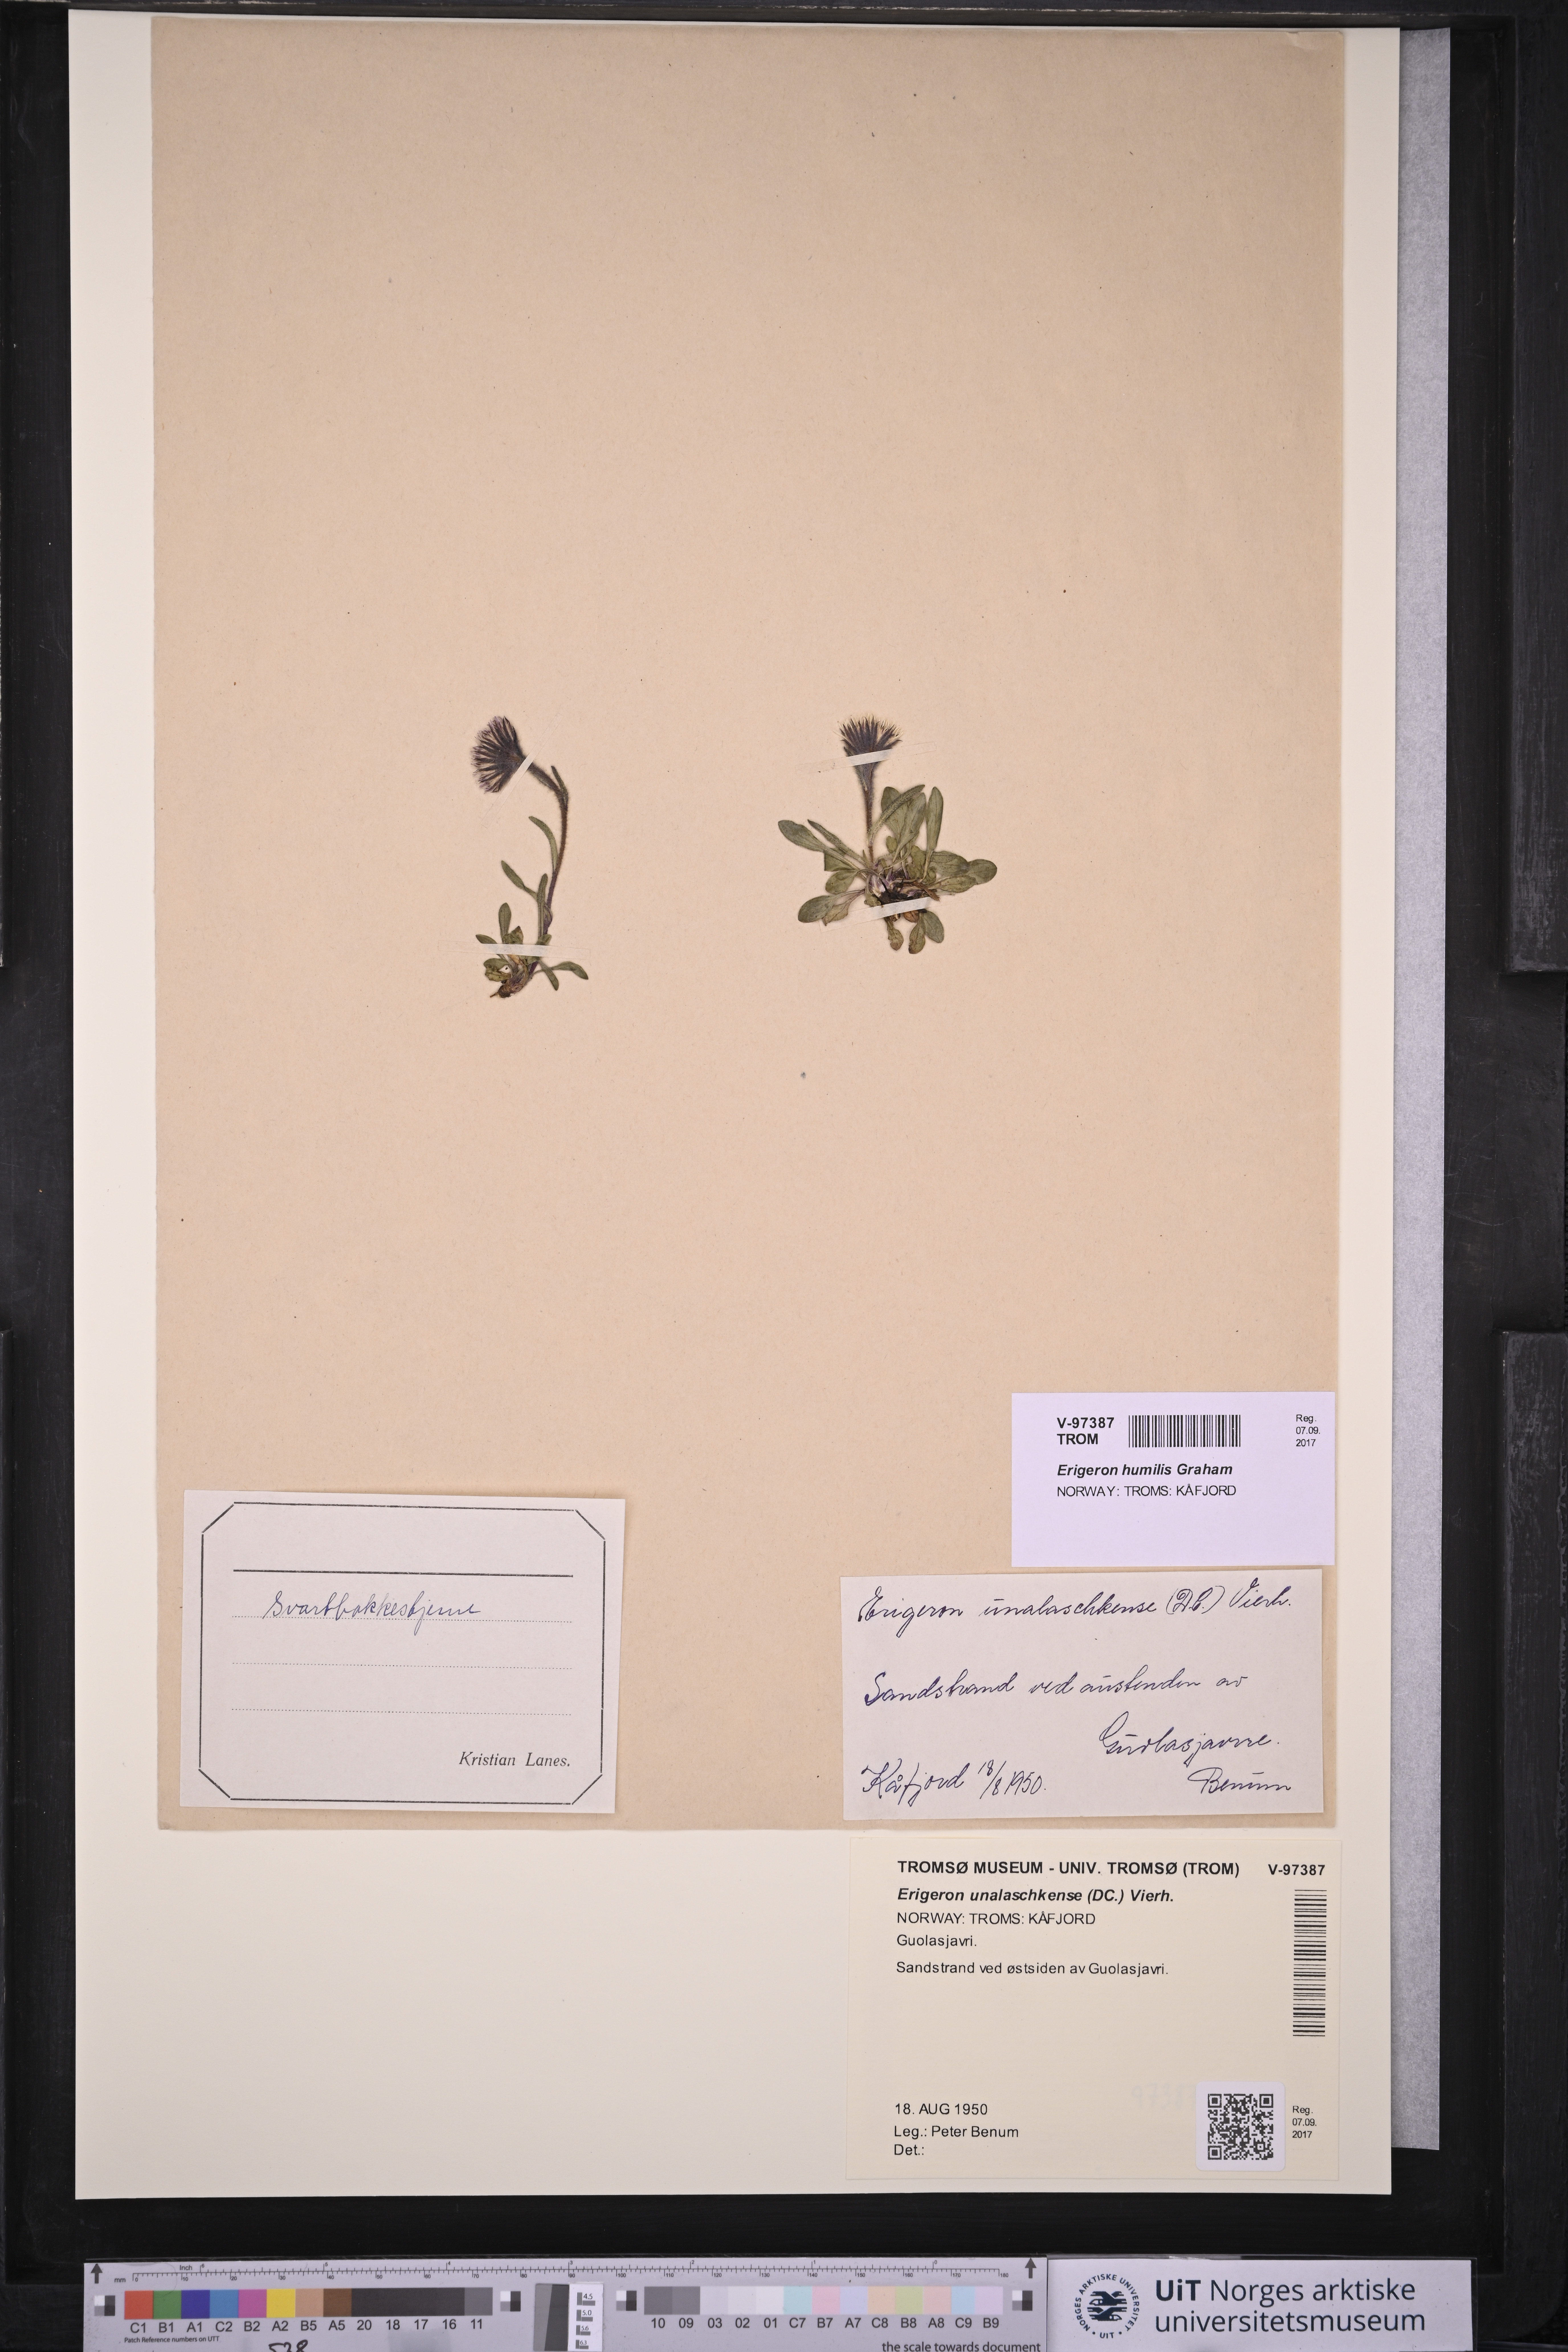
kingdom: Plantae
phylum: Tracheophyta
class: Magnoliopsida
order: Asterales
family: Asteraceae
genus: Erigeron
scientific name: Erigeron humilis
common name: Arctic-alpine fleabane
